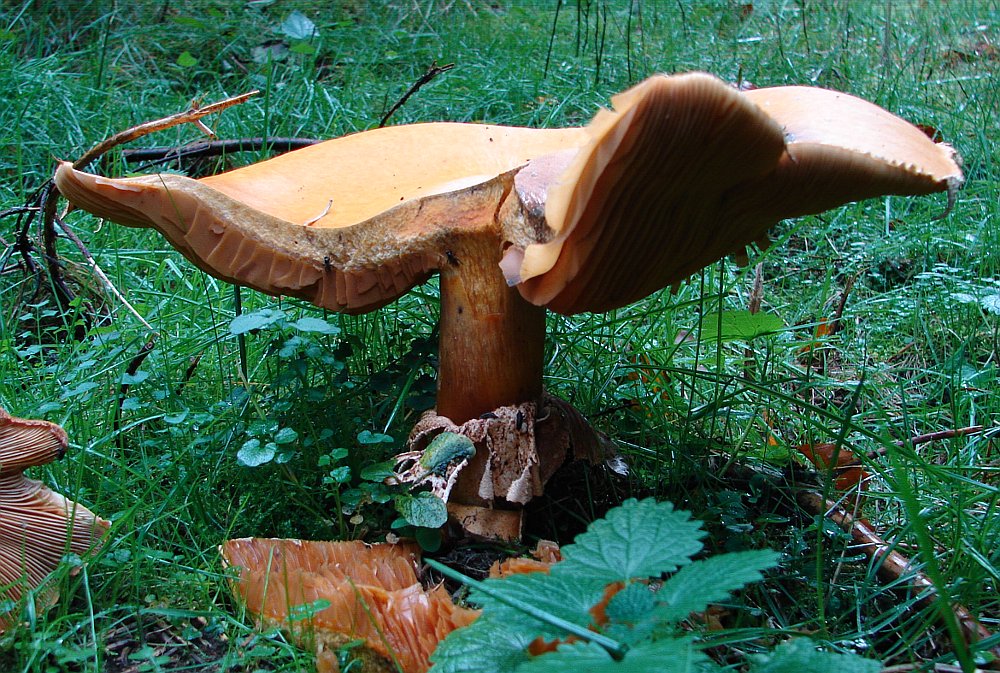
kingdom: Fungi
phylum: Basidiomycota
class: Agaricomycetes
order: Agaricales
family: Tricholomataceae
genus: Phaeolepiota
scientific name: Phaeolepiota aurea
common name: gyldenhat
